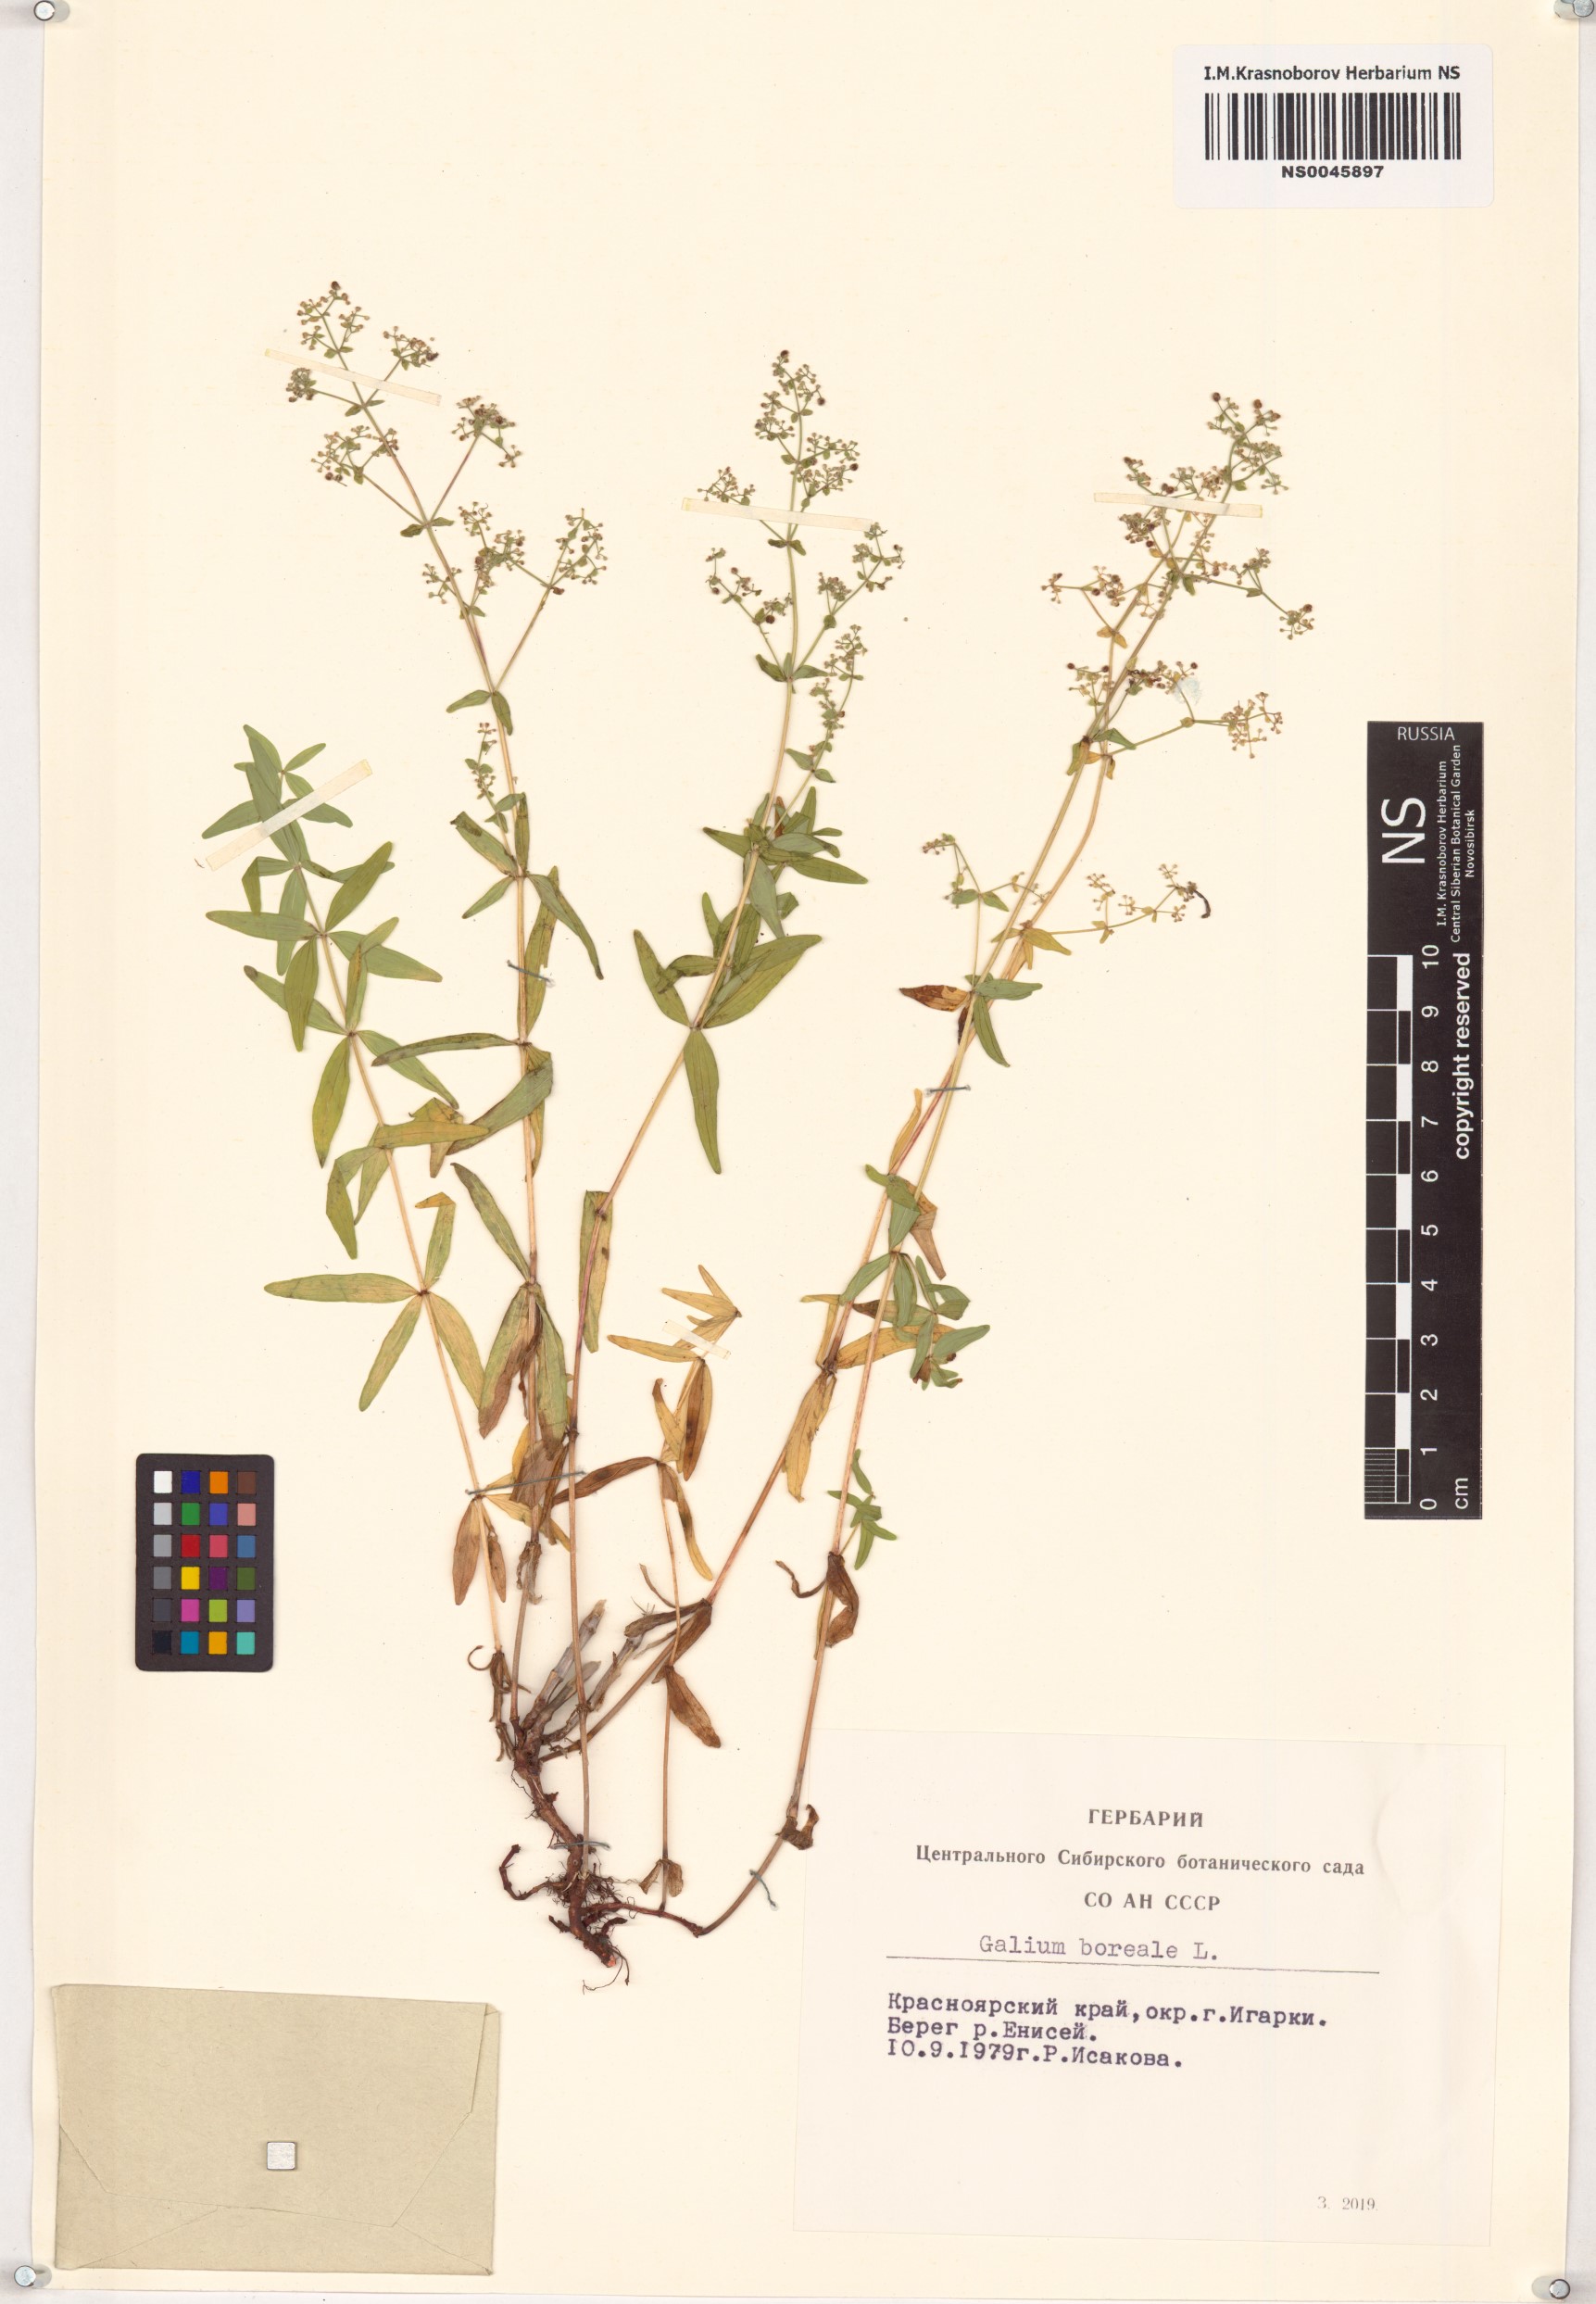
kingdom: Plantae
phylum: Tracheophyta
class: Magnoliopsida
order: Gentianales
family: Rubiaceae
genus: Galium
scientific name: Galium boreale
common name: Northern bedstraw
